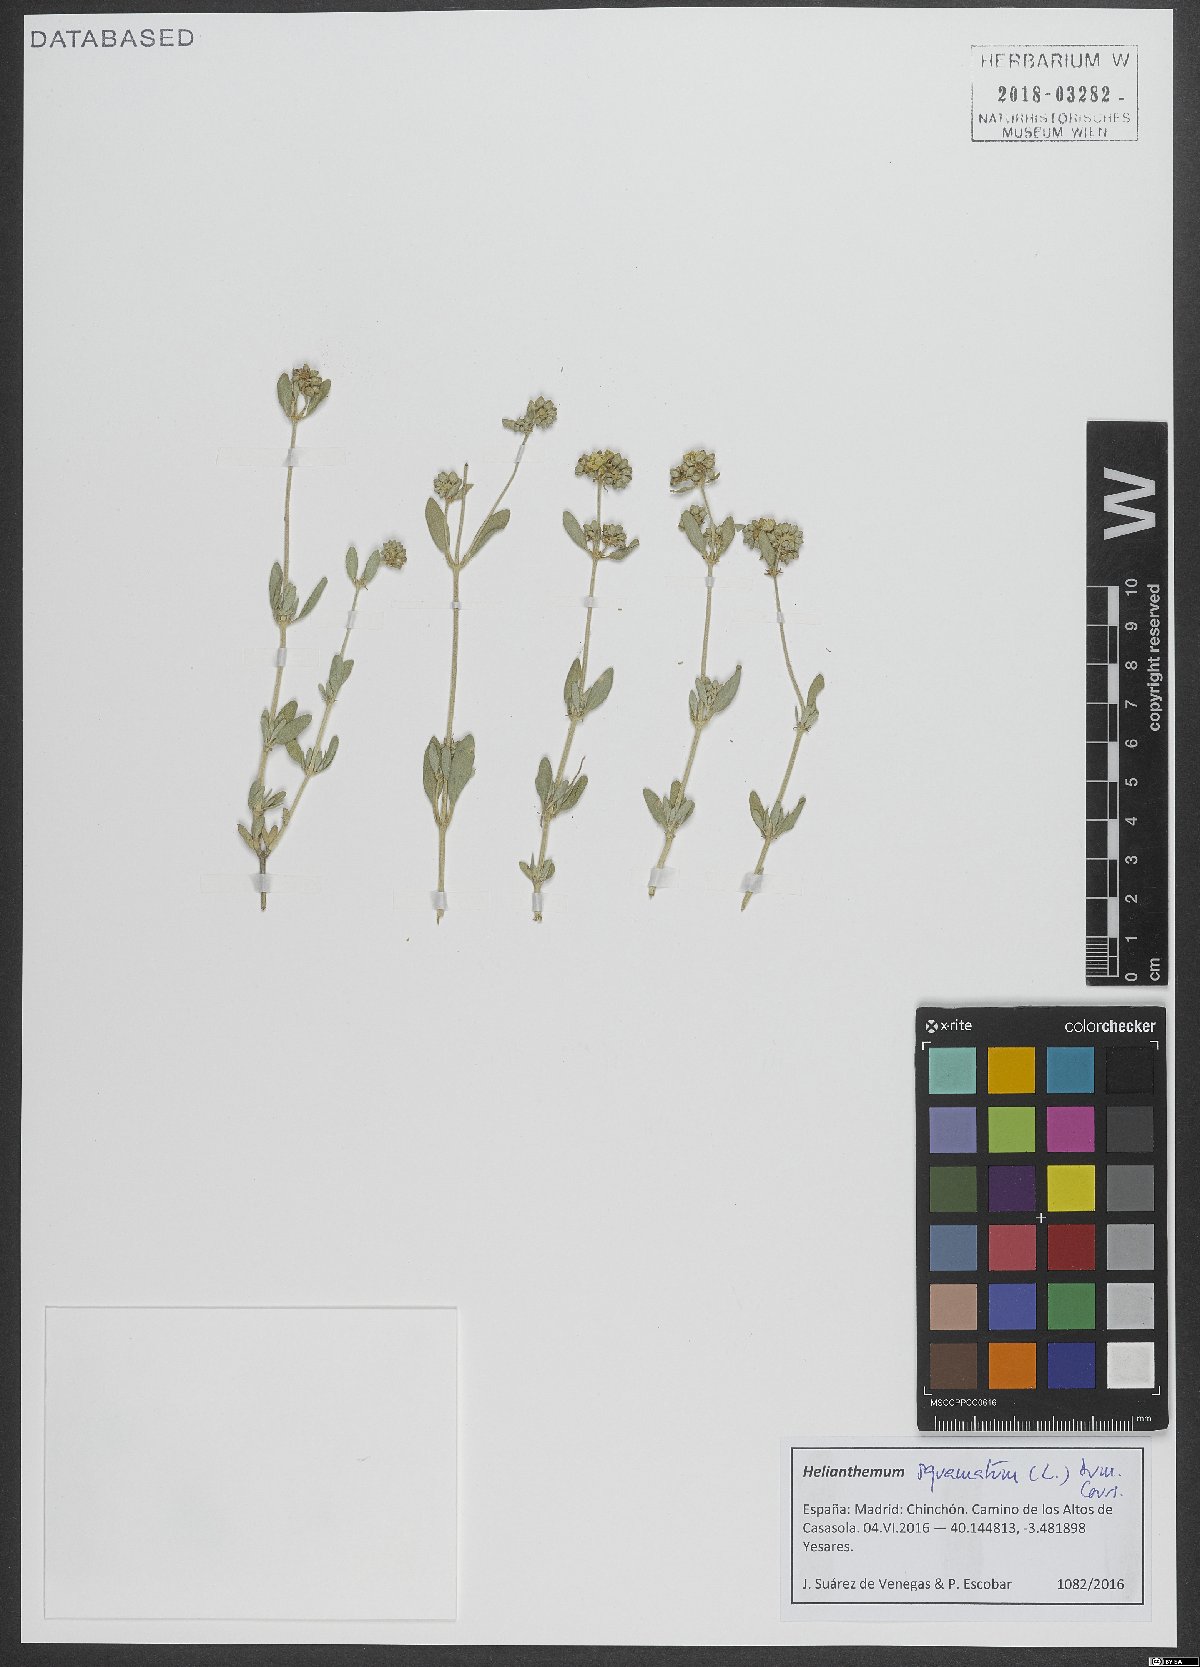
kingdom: Plantae
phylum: Tracheophyta
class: Magnoliopsida
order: Malvales
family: Cistaceae
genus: Helianthemum
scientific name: Helianthemum squamatum
